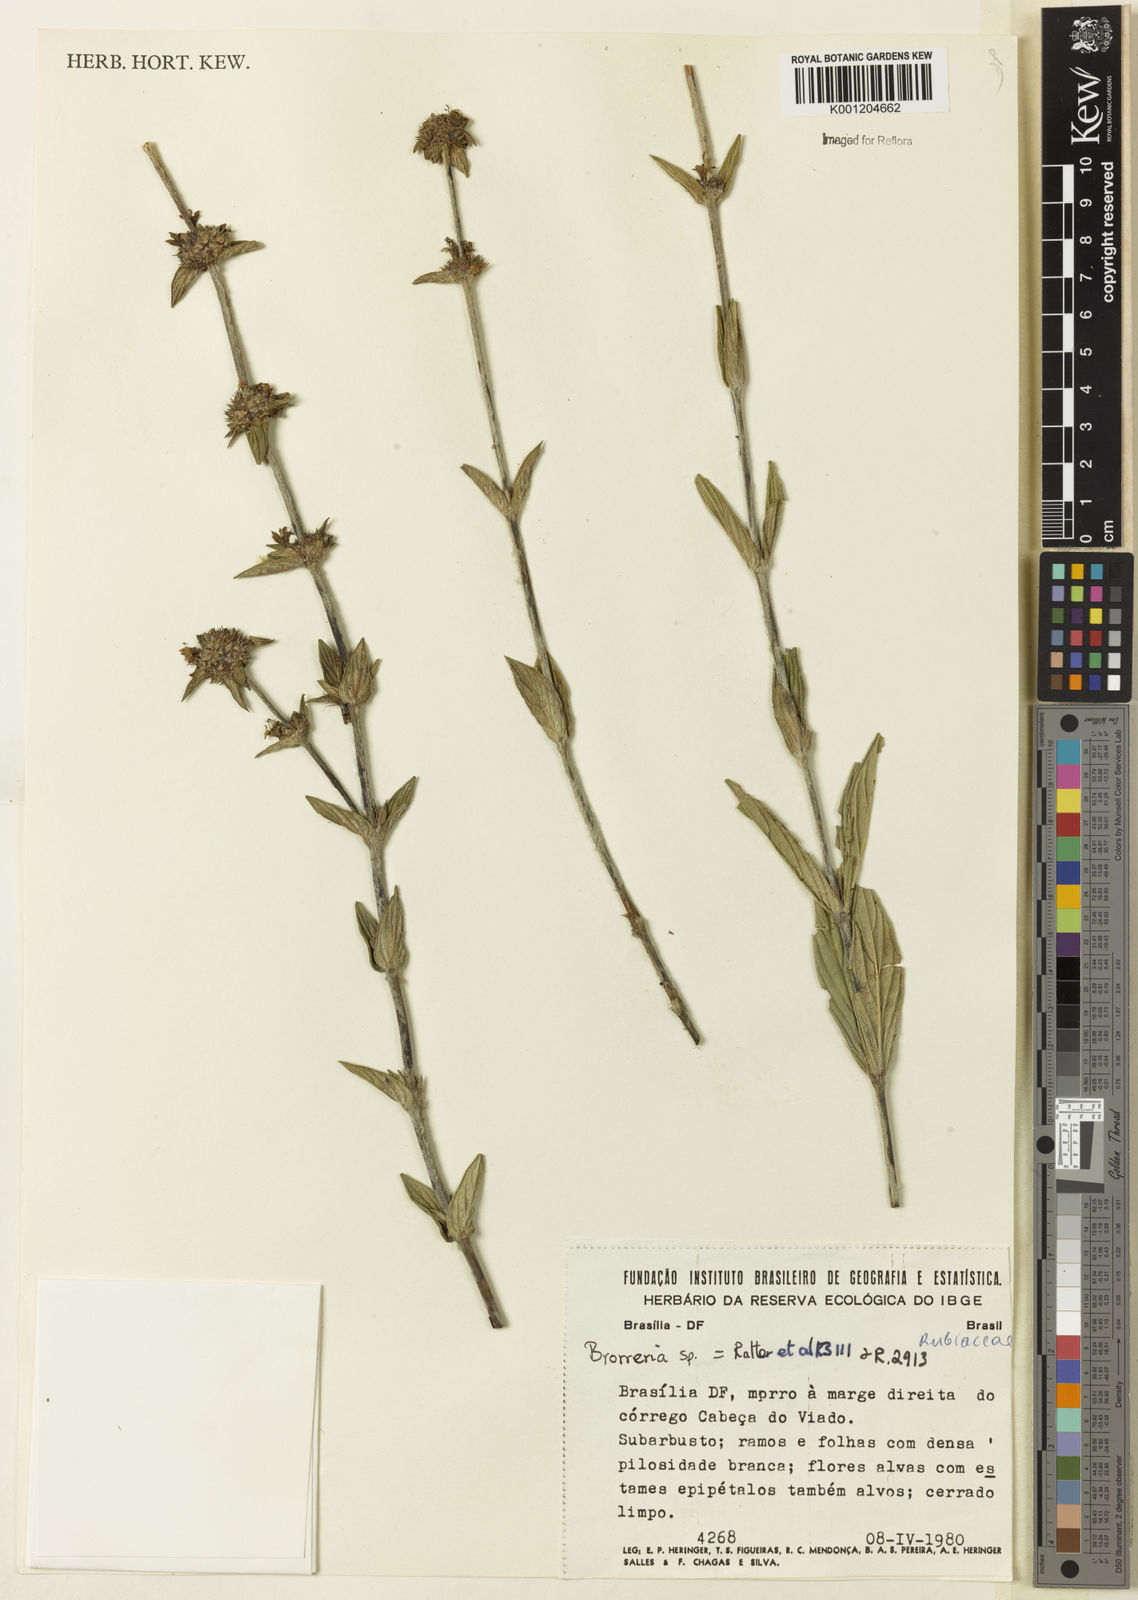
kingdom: Plantae
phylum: Tracheophyta
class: Magnoliopsida
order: Gentianales
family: Rubiaceae
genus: Planaltina
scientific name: Planaltina capitata
